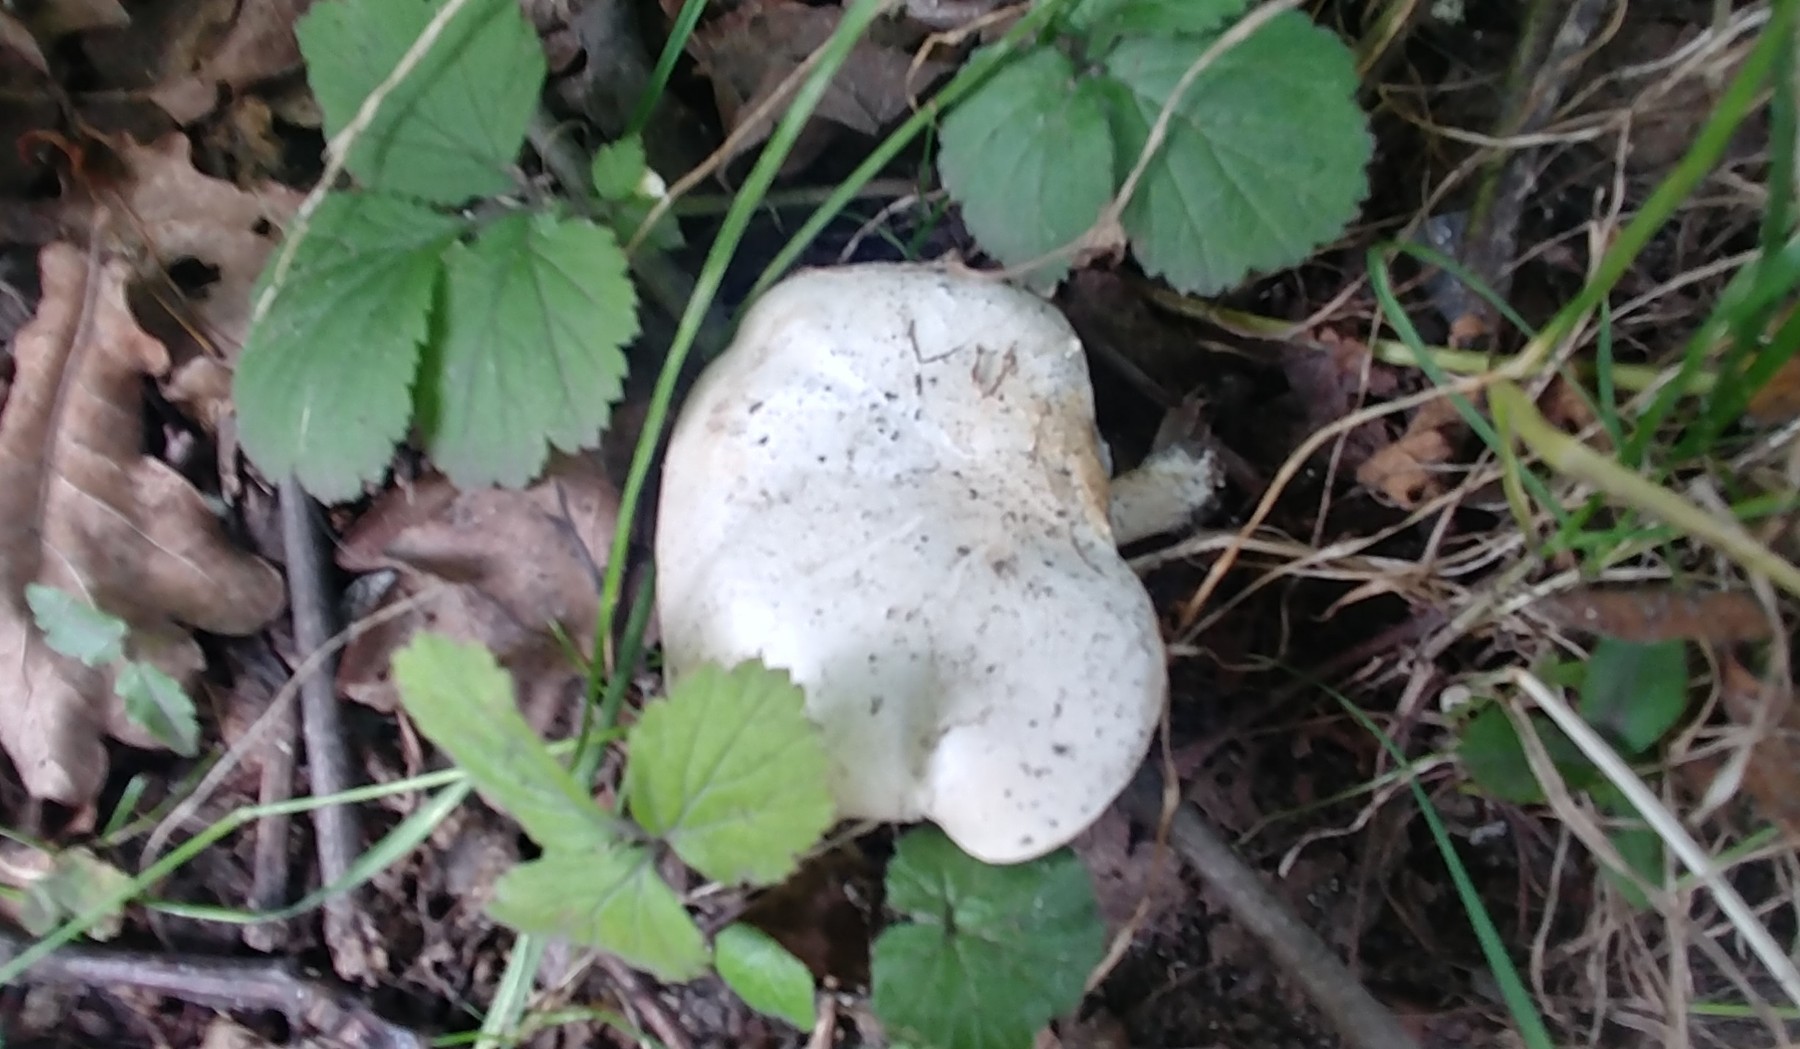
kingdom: Fungi
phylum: Basidiomycota
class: Agaricomycetes
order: Agaricales
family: Entolomataceae
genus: Clitopilus
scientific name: Clitopilus prunulus
